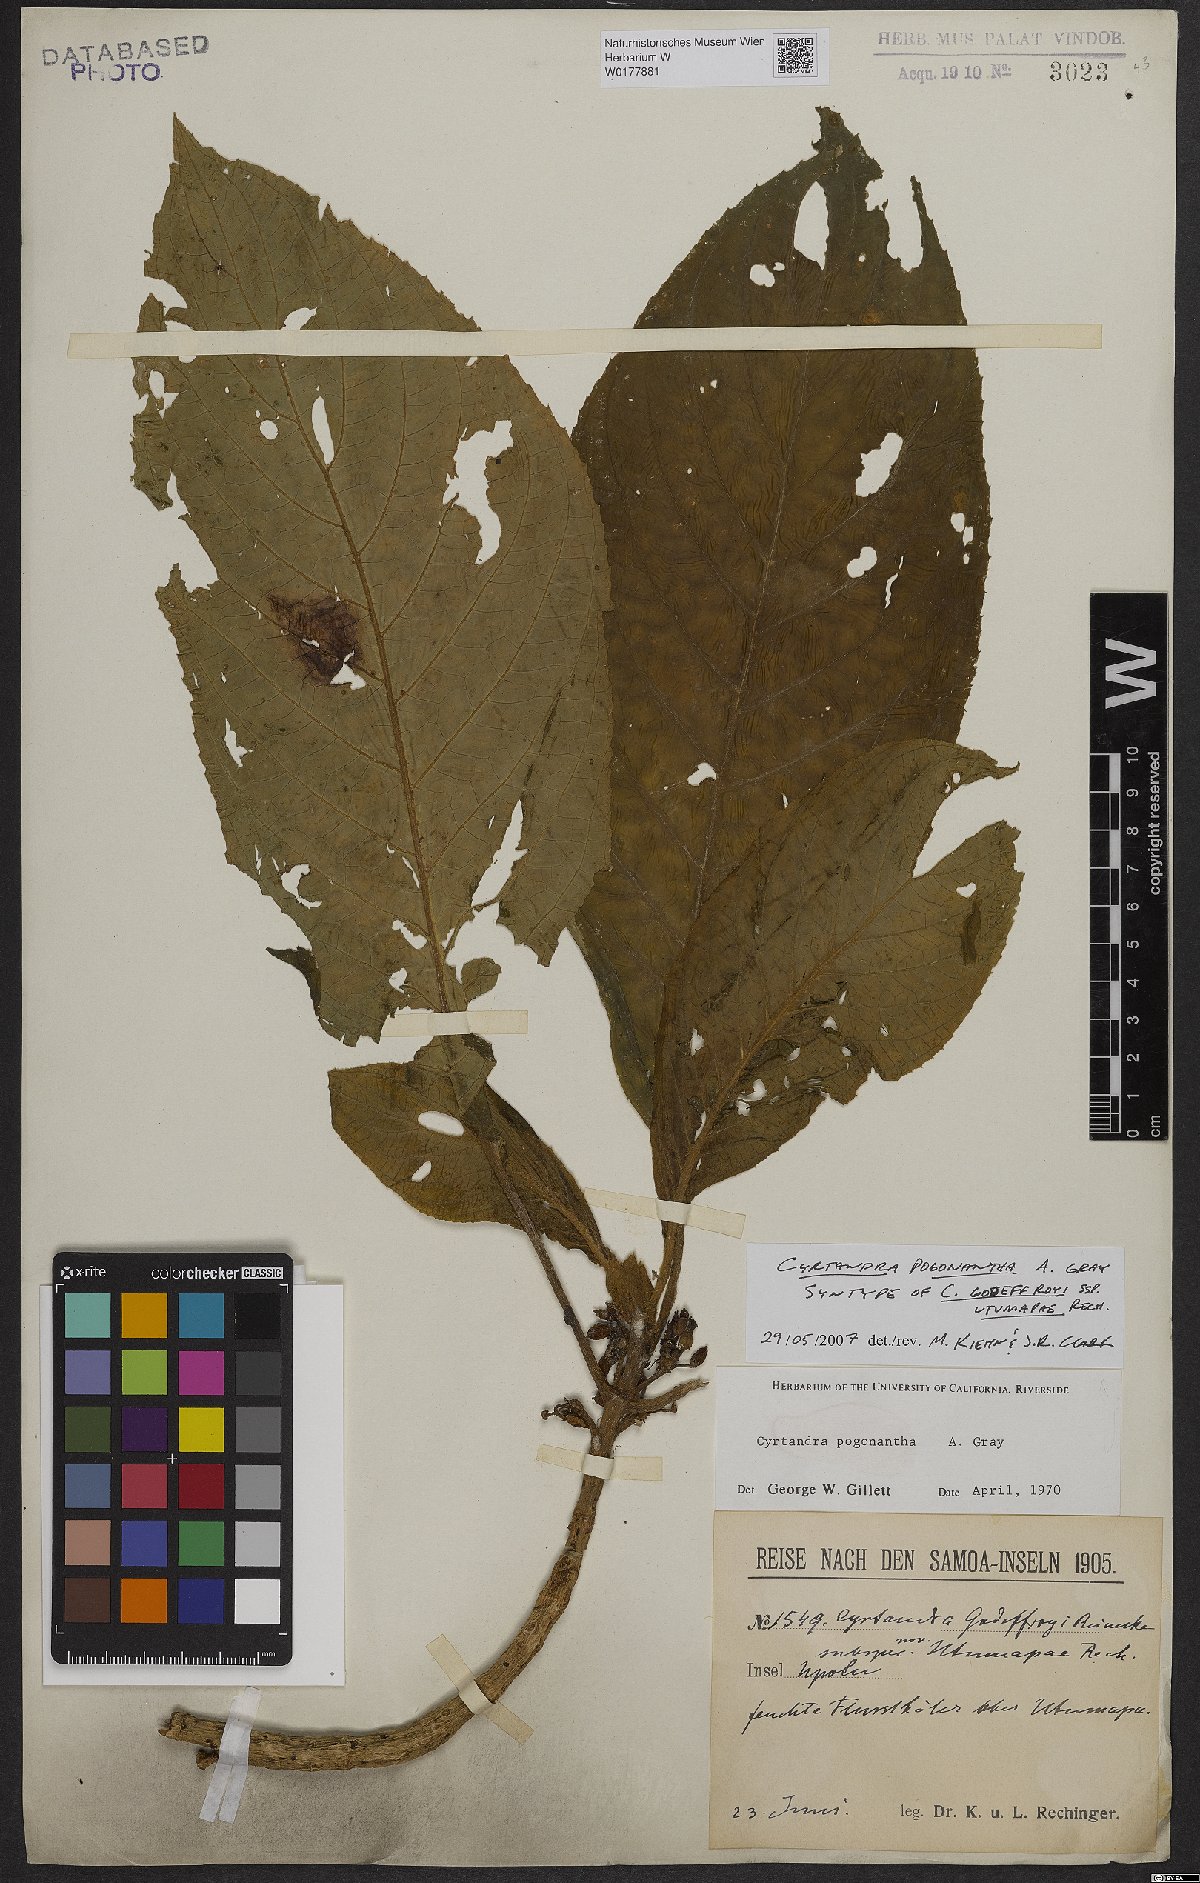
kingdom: Plantae
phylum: Tracheophyta
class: Magnoliopsida
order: Lamiales
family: Gesneriaceae
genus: Cyrtandra
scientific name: Cyrtandra pogonantha
